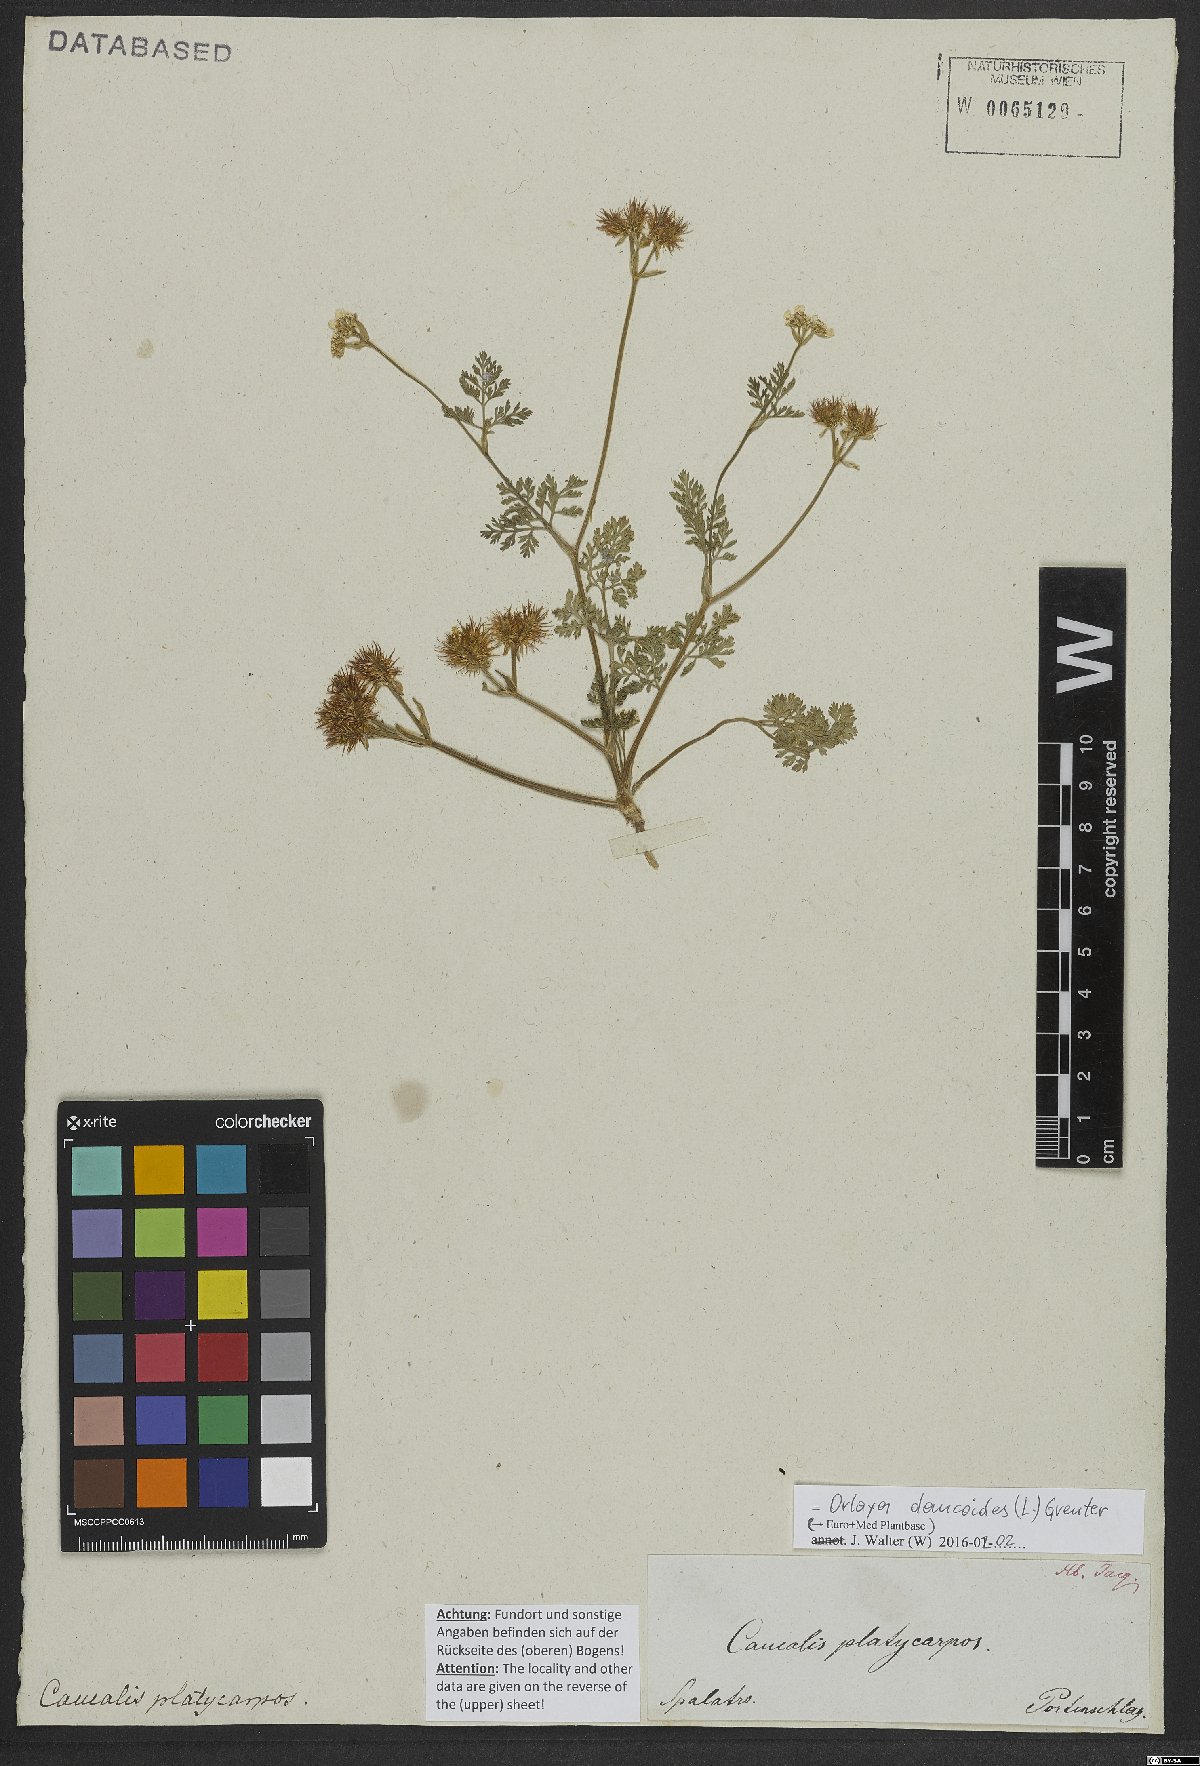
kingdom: Plantae
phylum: Tracheophyta
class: Magnoliopsida
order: Apiales
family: Apiaceae
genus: Orlaya
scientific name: Orlaya daucoides
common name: Flat-fruit orlaya
